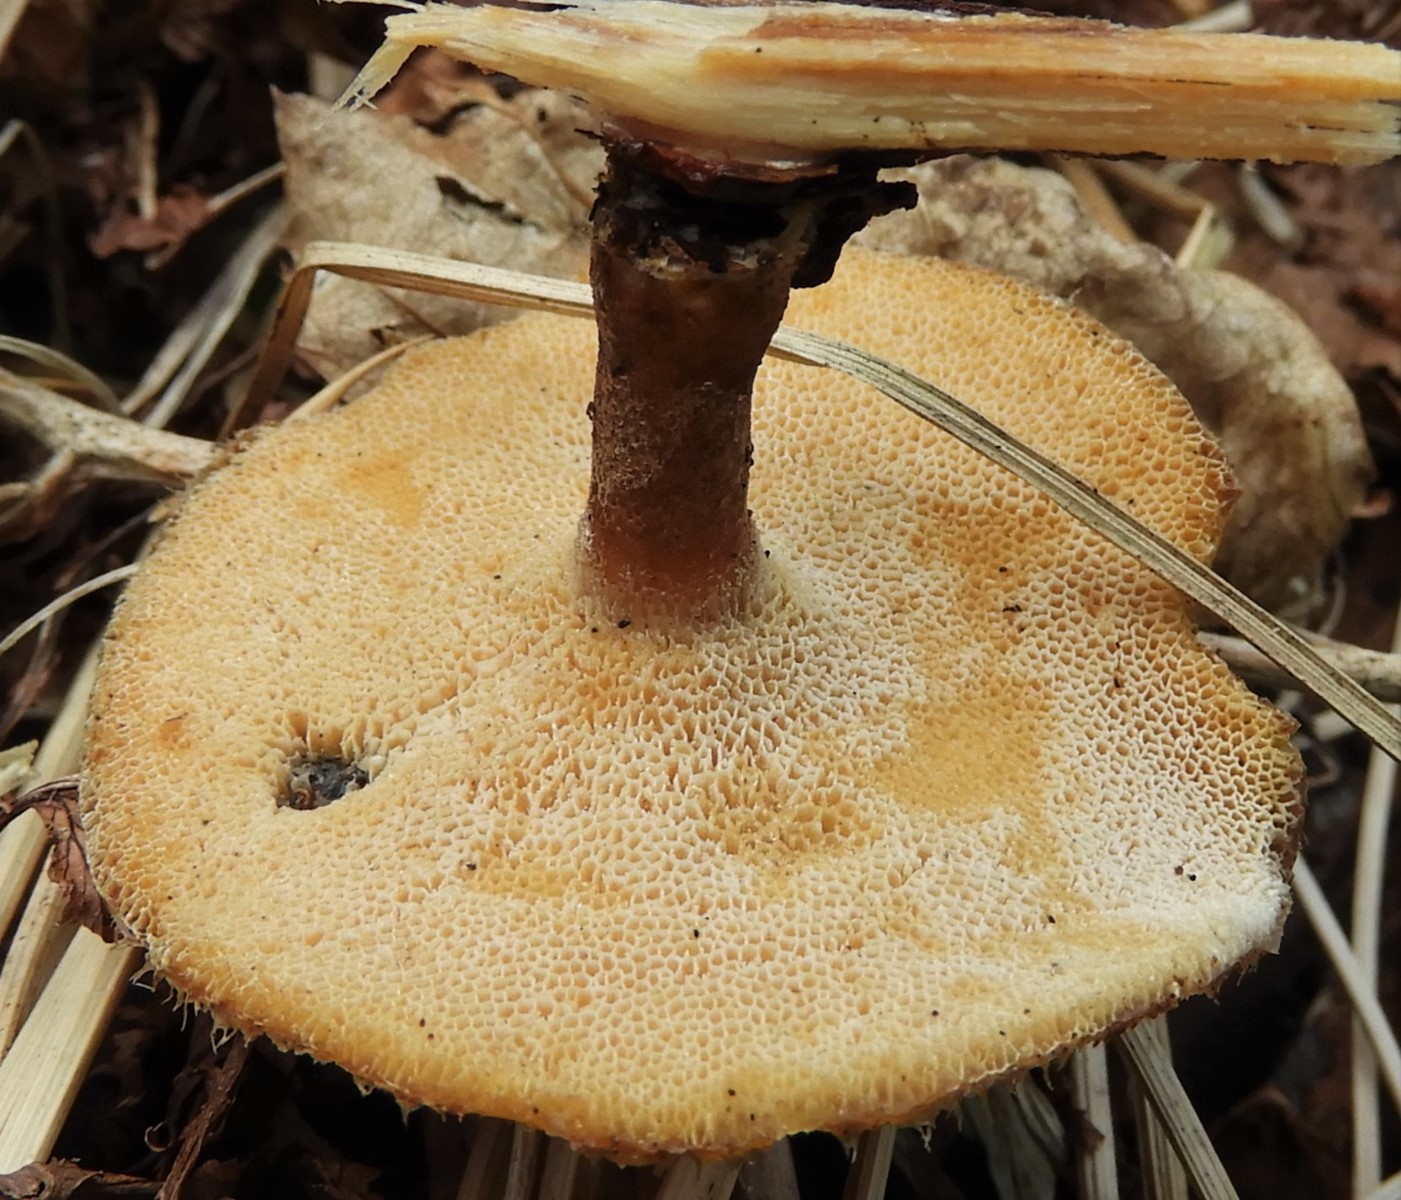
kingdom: Fungi
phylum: Basidiomycota
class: Agaricomycetes
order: Polyporales
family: Polyporaceae
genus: Lentinus
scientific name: Lentinus brumalis
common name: vinter-stilkporesvamp
